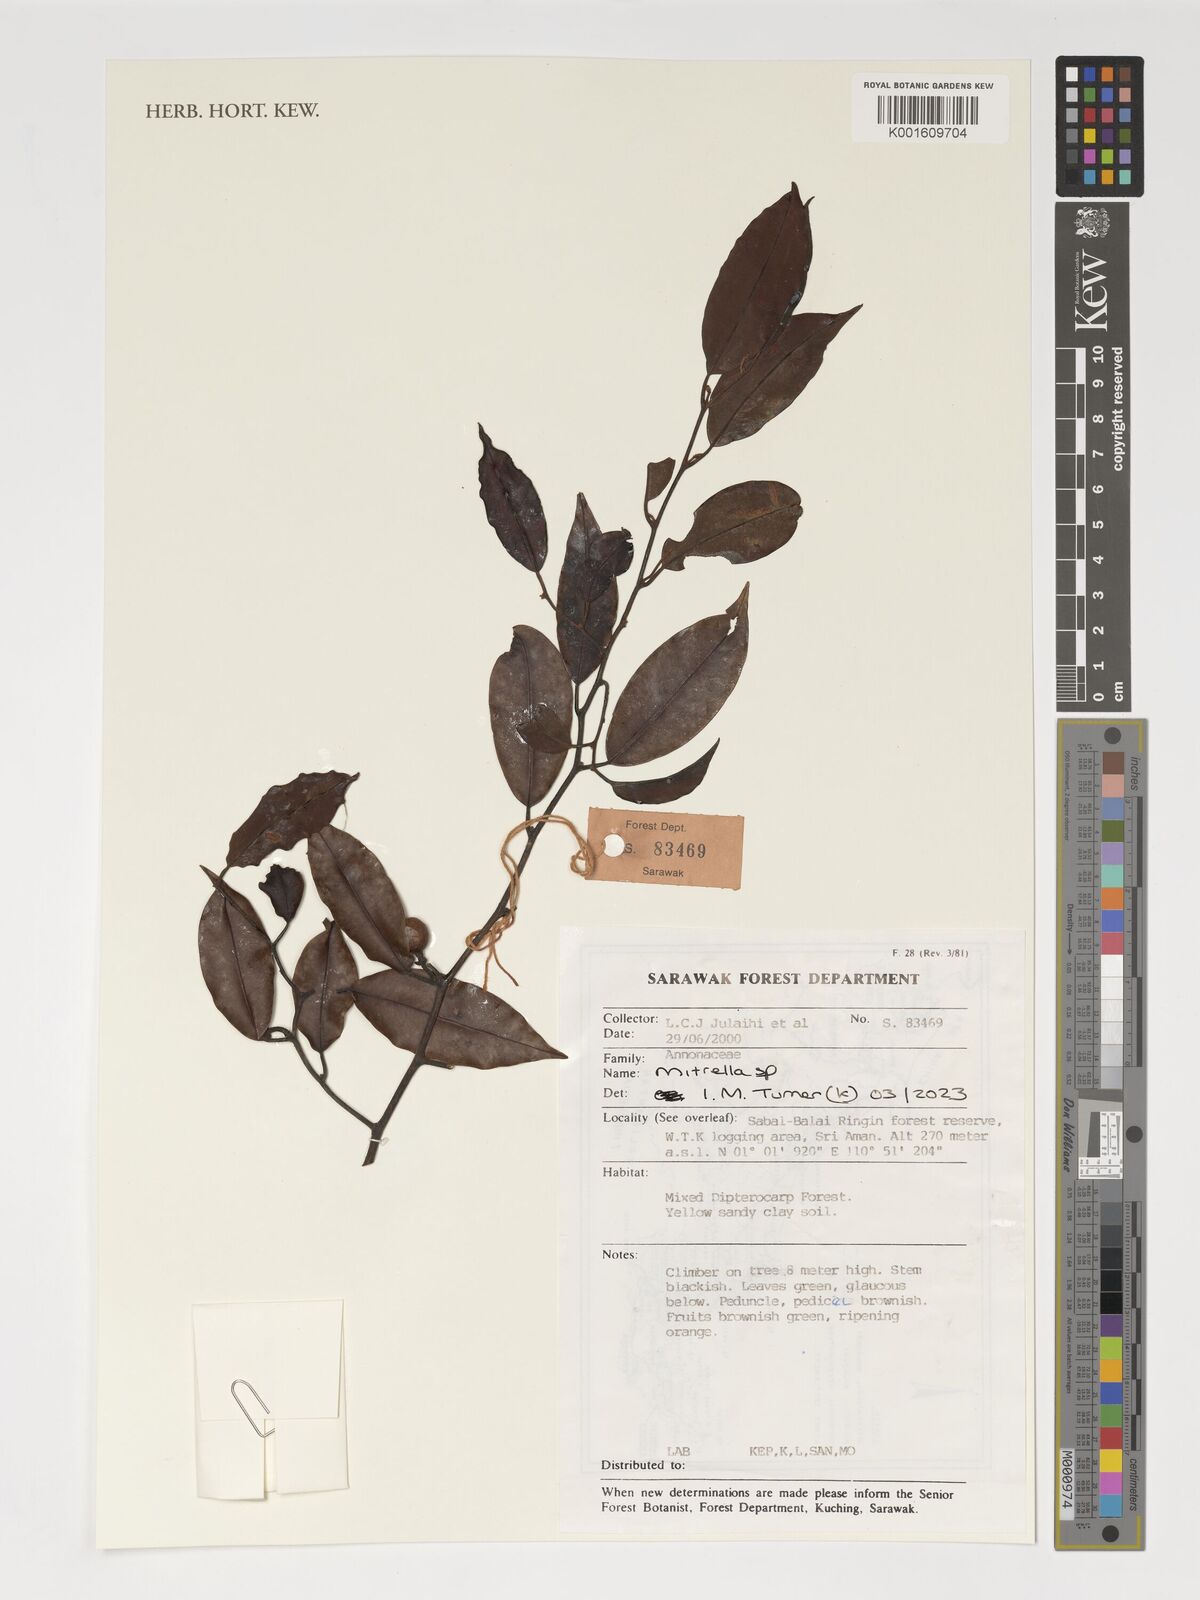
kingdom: Plantae
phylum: Tracheophyta
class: Magnoliopsida
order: Magnoliales
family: Annonaceae
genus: Mitrella
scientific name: Mitrella
